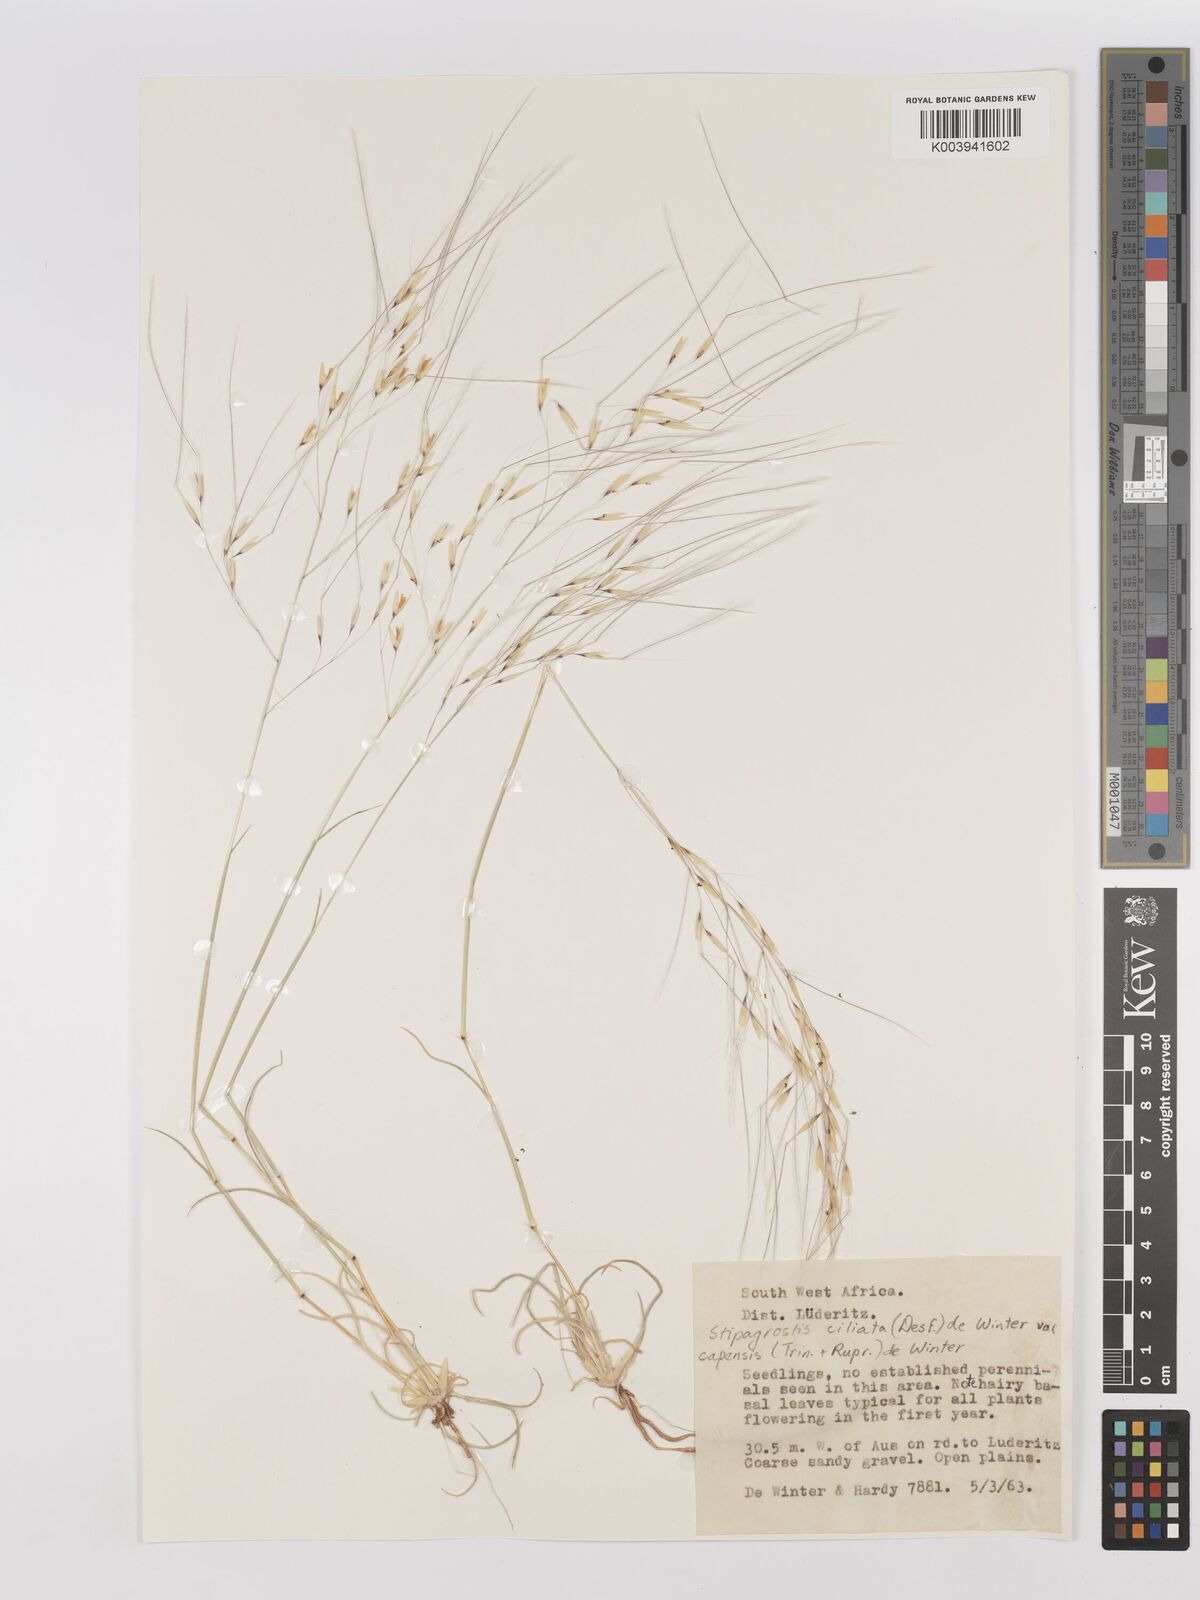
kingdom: Plantae
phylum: Tracheophyta
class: Liliopsida
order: Poales
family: Poaceae
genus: Stipagrostis
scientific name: Stipagrostis ciliata
